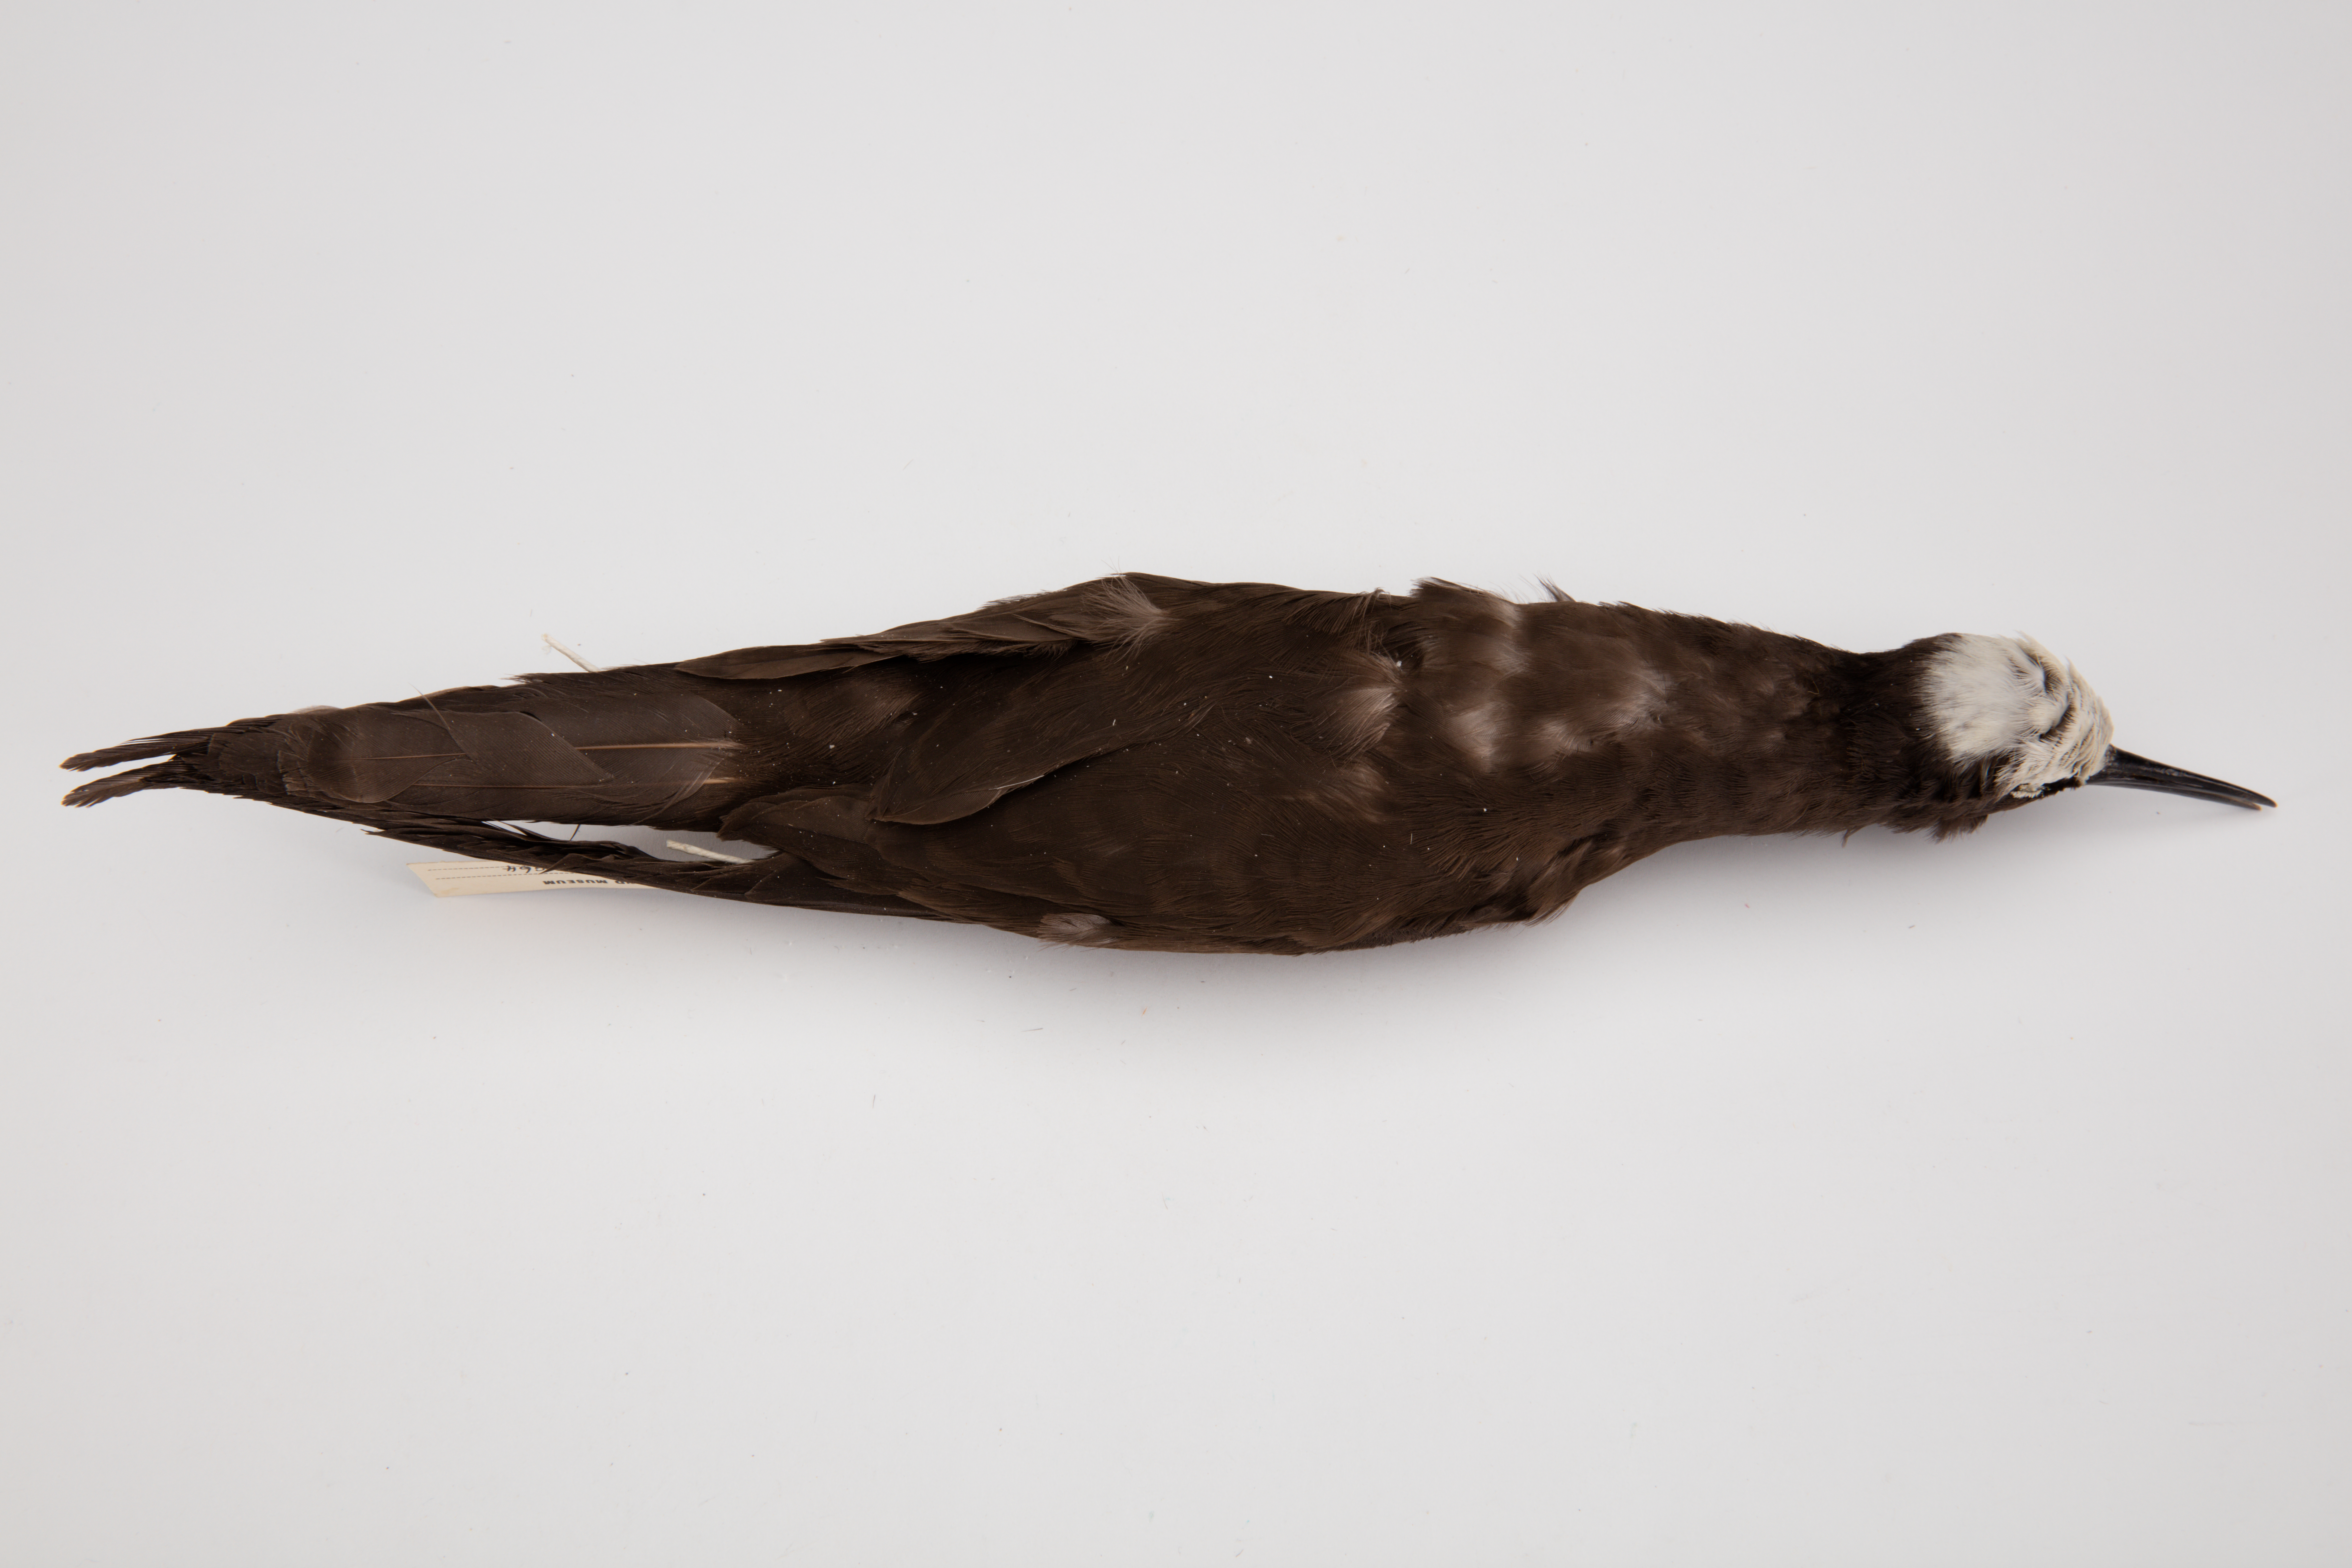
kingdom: Animalia
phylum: Chordata
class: Aves
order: Charadriiformes
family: Laridae
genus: Anous
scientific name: Anous minutus
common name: Black noddy
